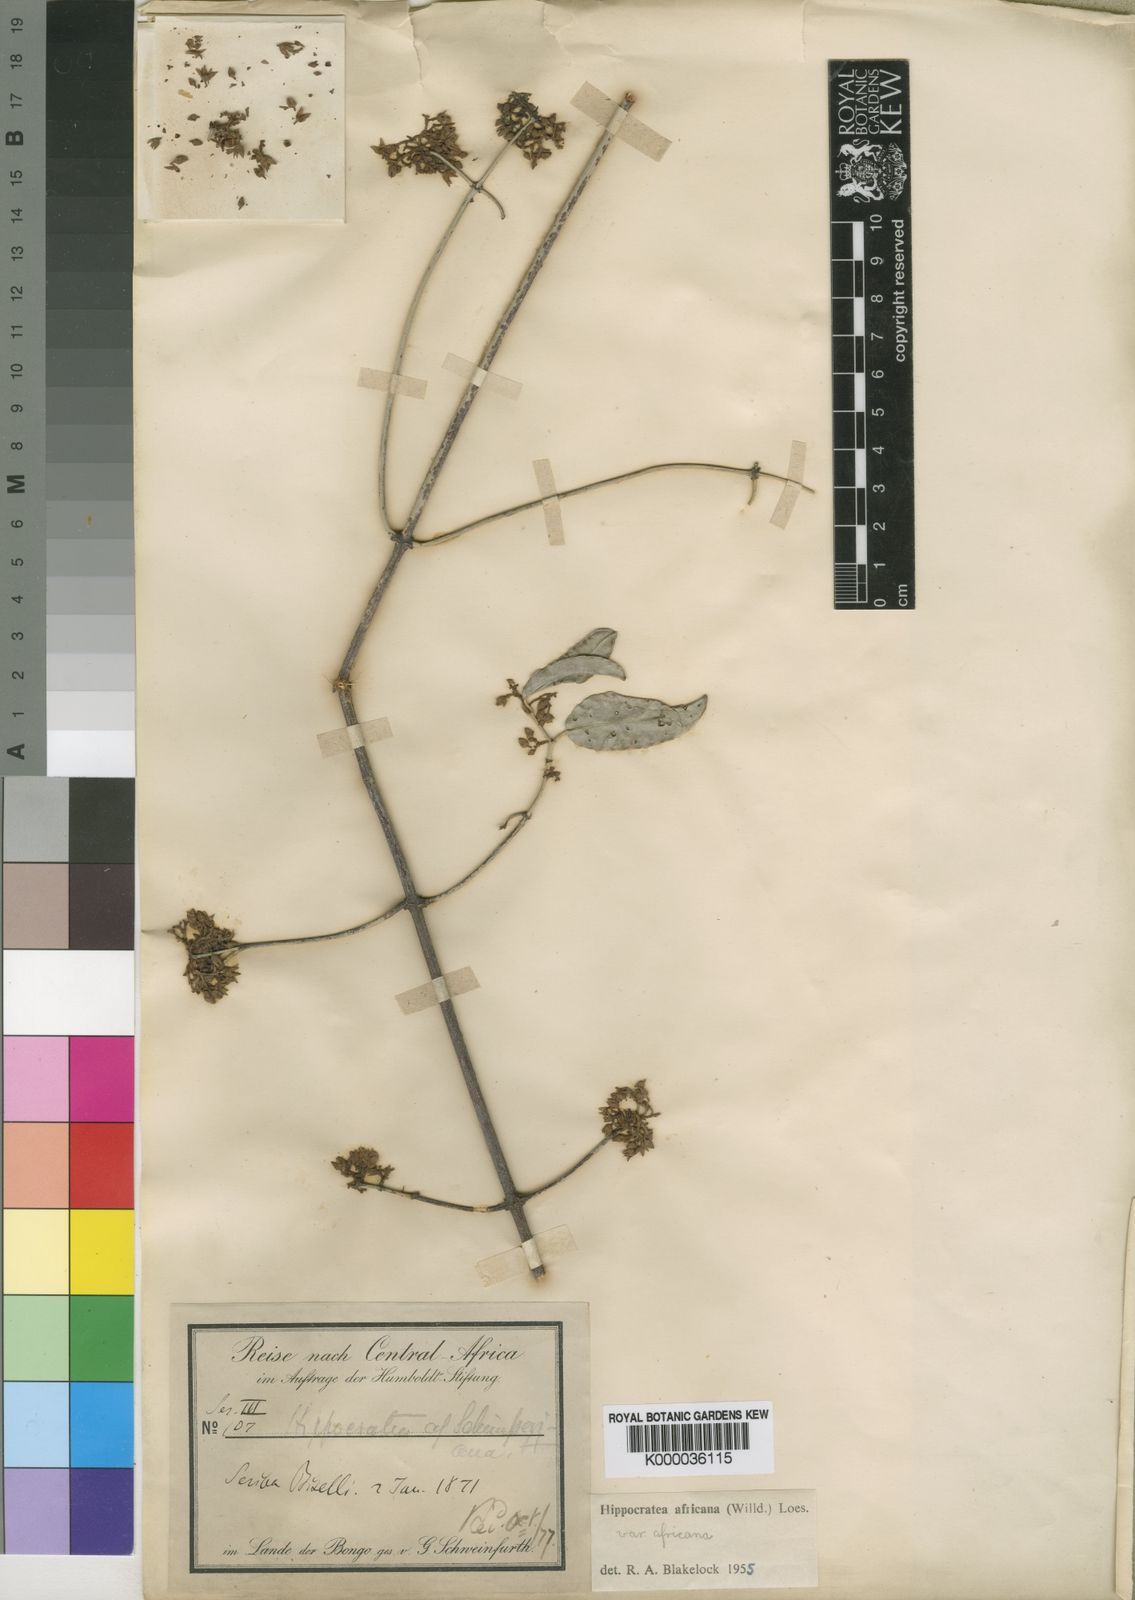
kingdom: Plantae
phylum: Tracheophyta
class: Magnoliopsida
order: Celastrales
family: Celastraceae
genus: Loeseneriella
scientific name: Loeseneriella
